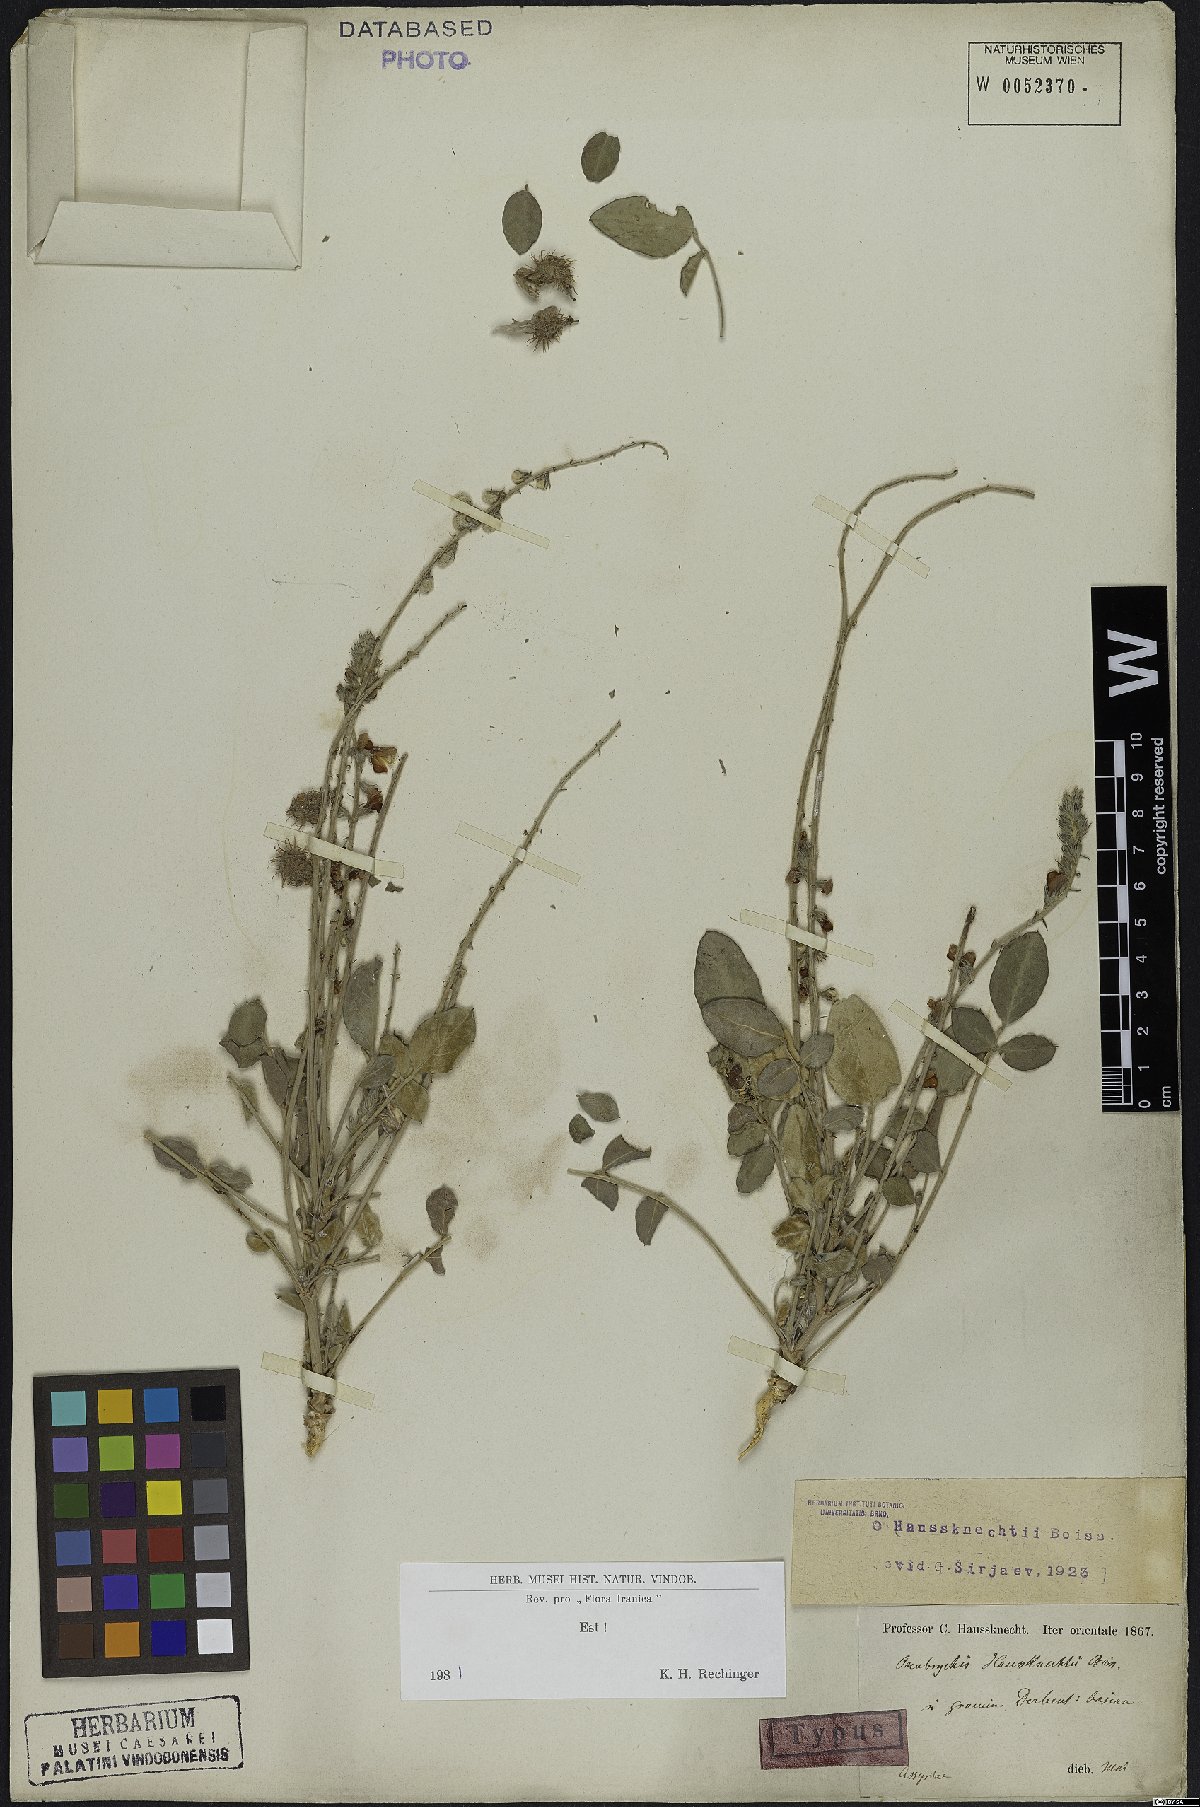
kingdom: Plantae
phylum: Tracheophyta
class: Magnoliopsida
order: Fabales
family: Fabaceae
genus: Onobrychis
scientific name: Onobrychis haussknechtii
